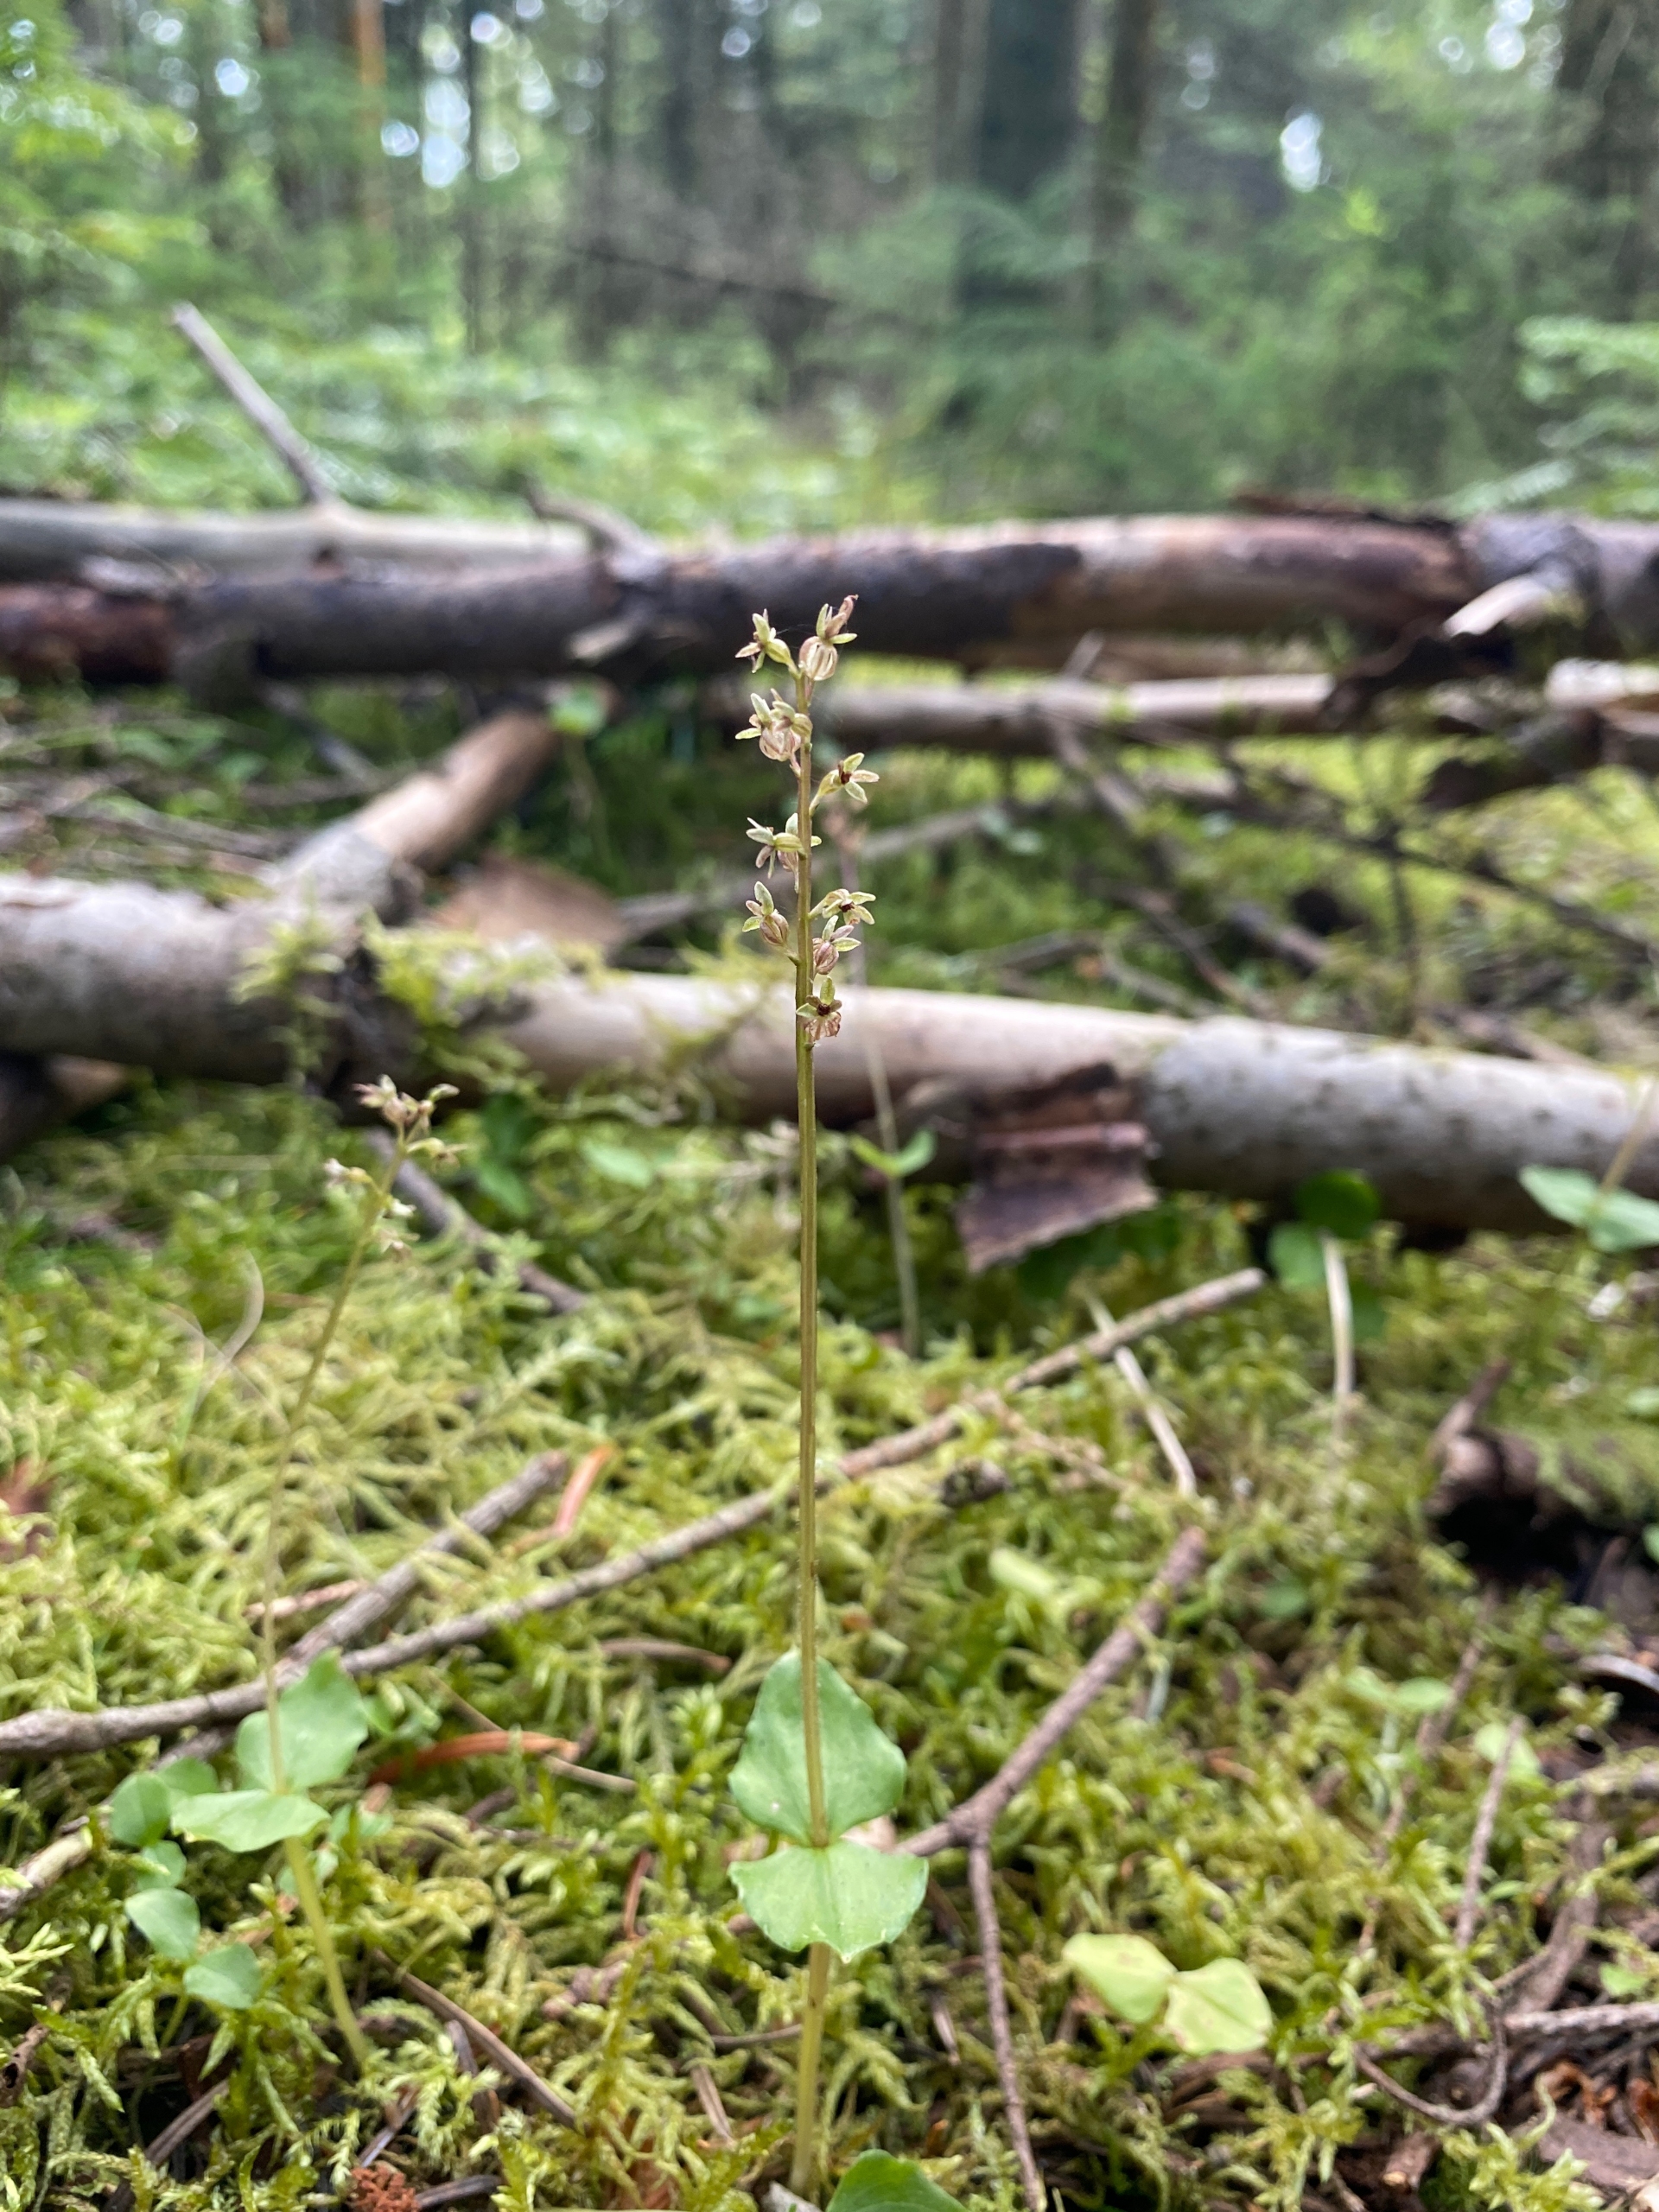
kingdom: Plantae
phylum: Tracheophyta
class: Liliopsida
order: Asparagales
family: Orchidaceae
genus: Neottia
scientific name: Neottia cordata
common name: Hjertebladet fliglæbe
